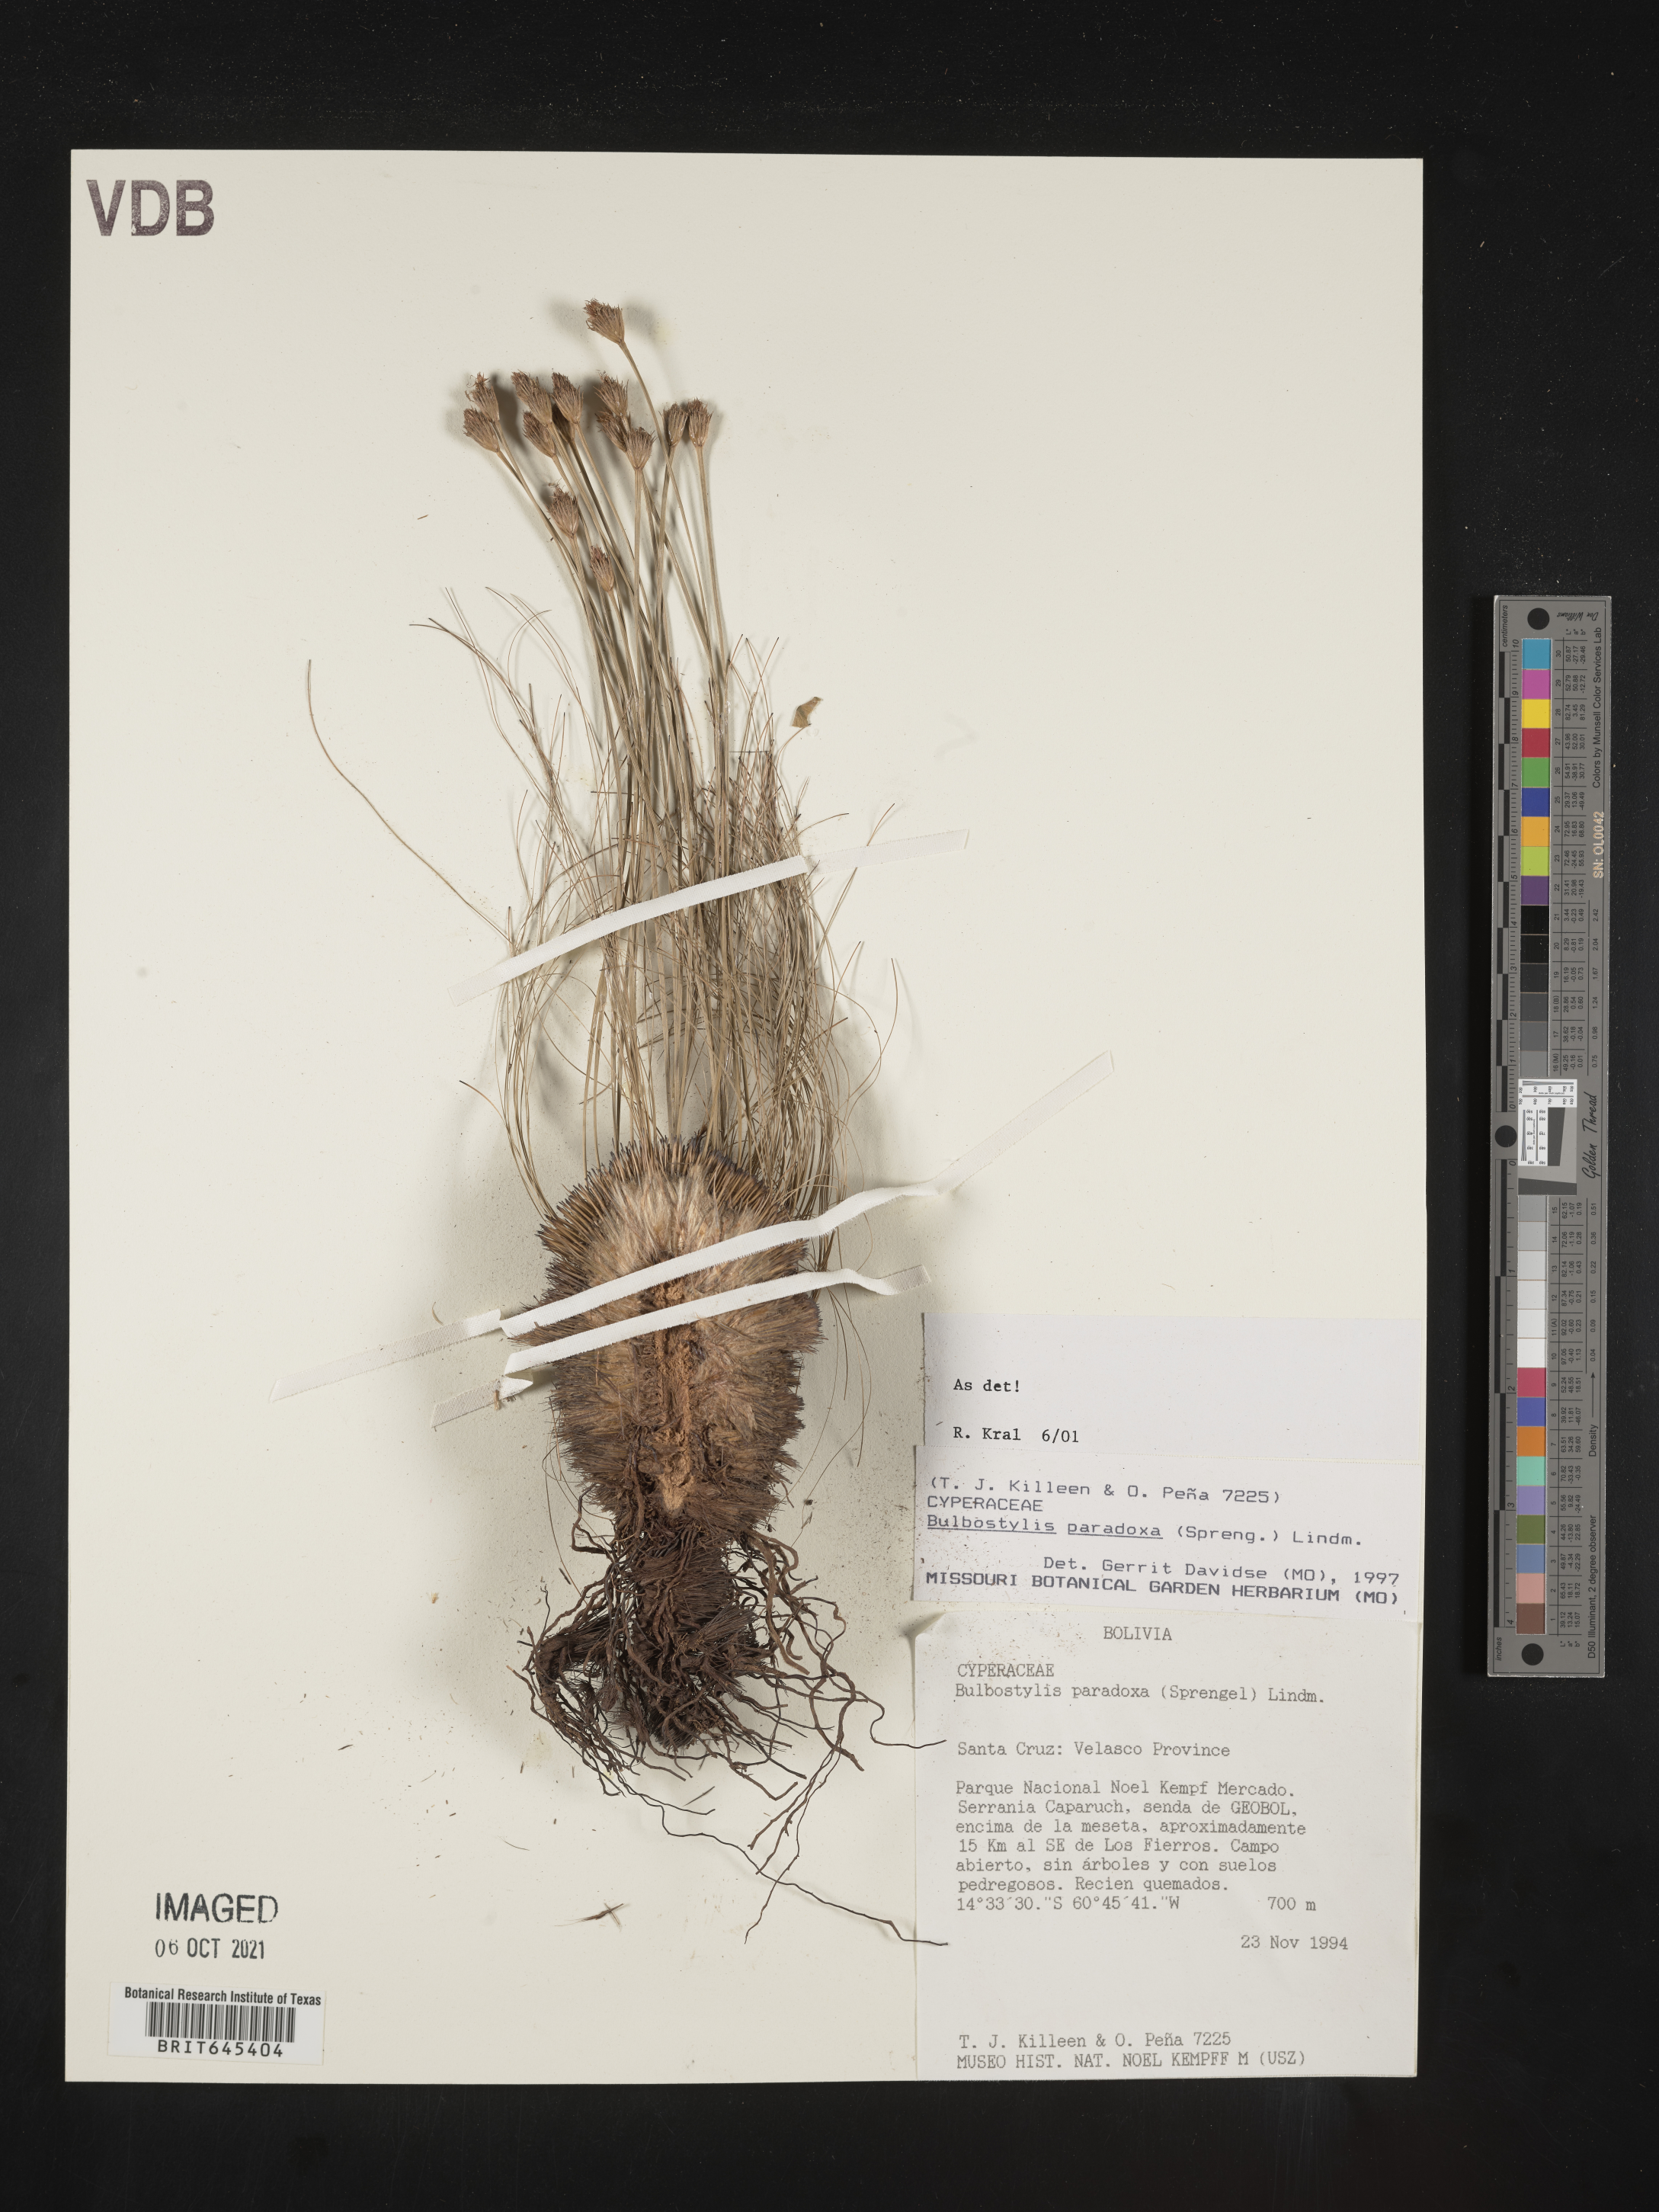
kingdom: Plantae
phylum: Tracheophyta
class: Liliopsida
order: Poales
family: Cyperaceae
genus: Bulbostylis
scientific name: Bulbostylis paradoxa
